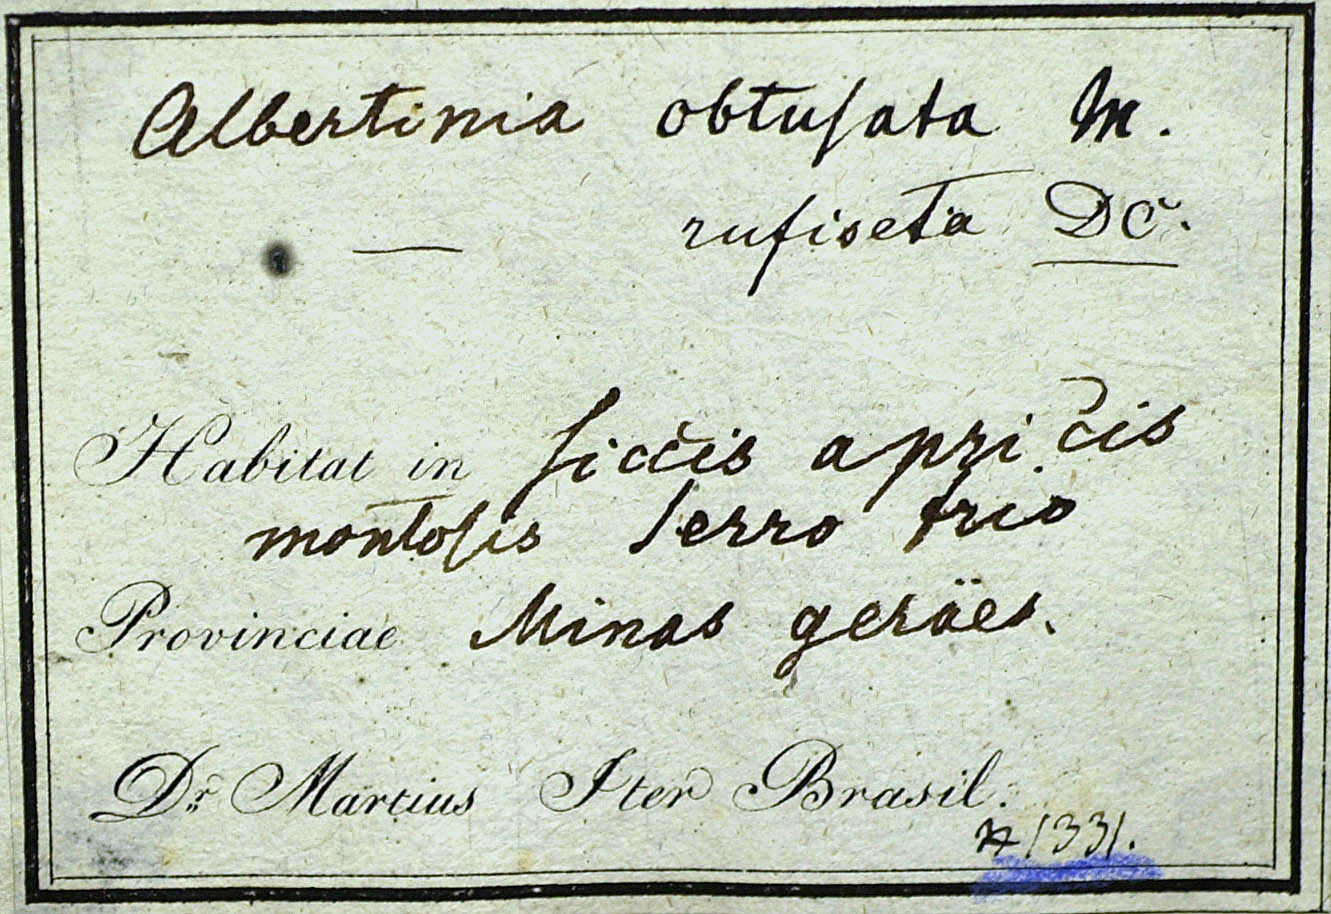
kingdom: Plantae
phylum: Tracheophyta
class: Magnoliopsida
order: Asterales
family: Asteraceae
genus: Eremanthus
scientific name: Eremanthus glomerulatus
